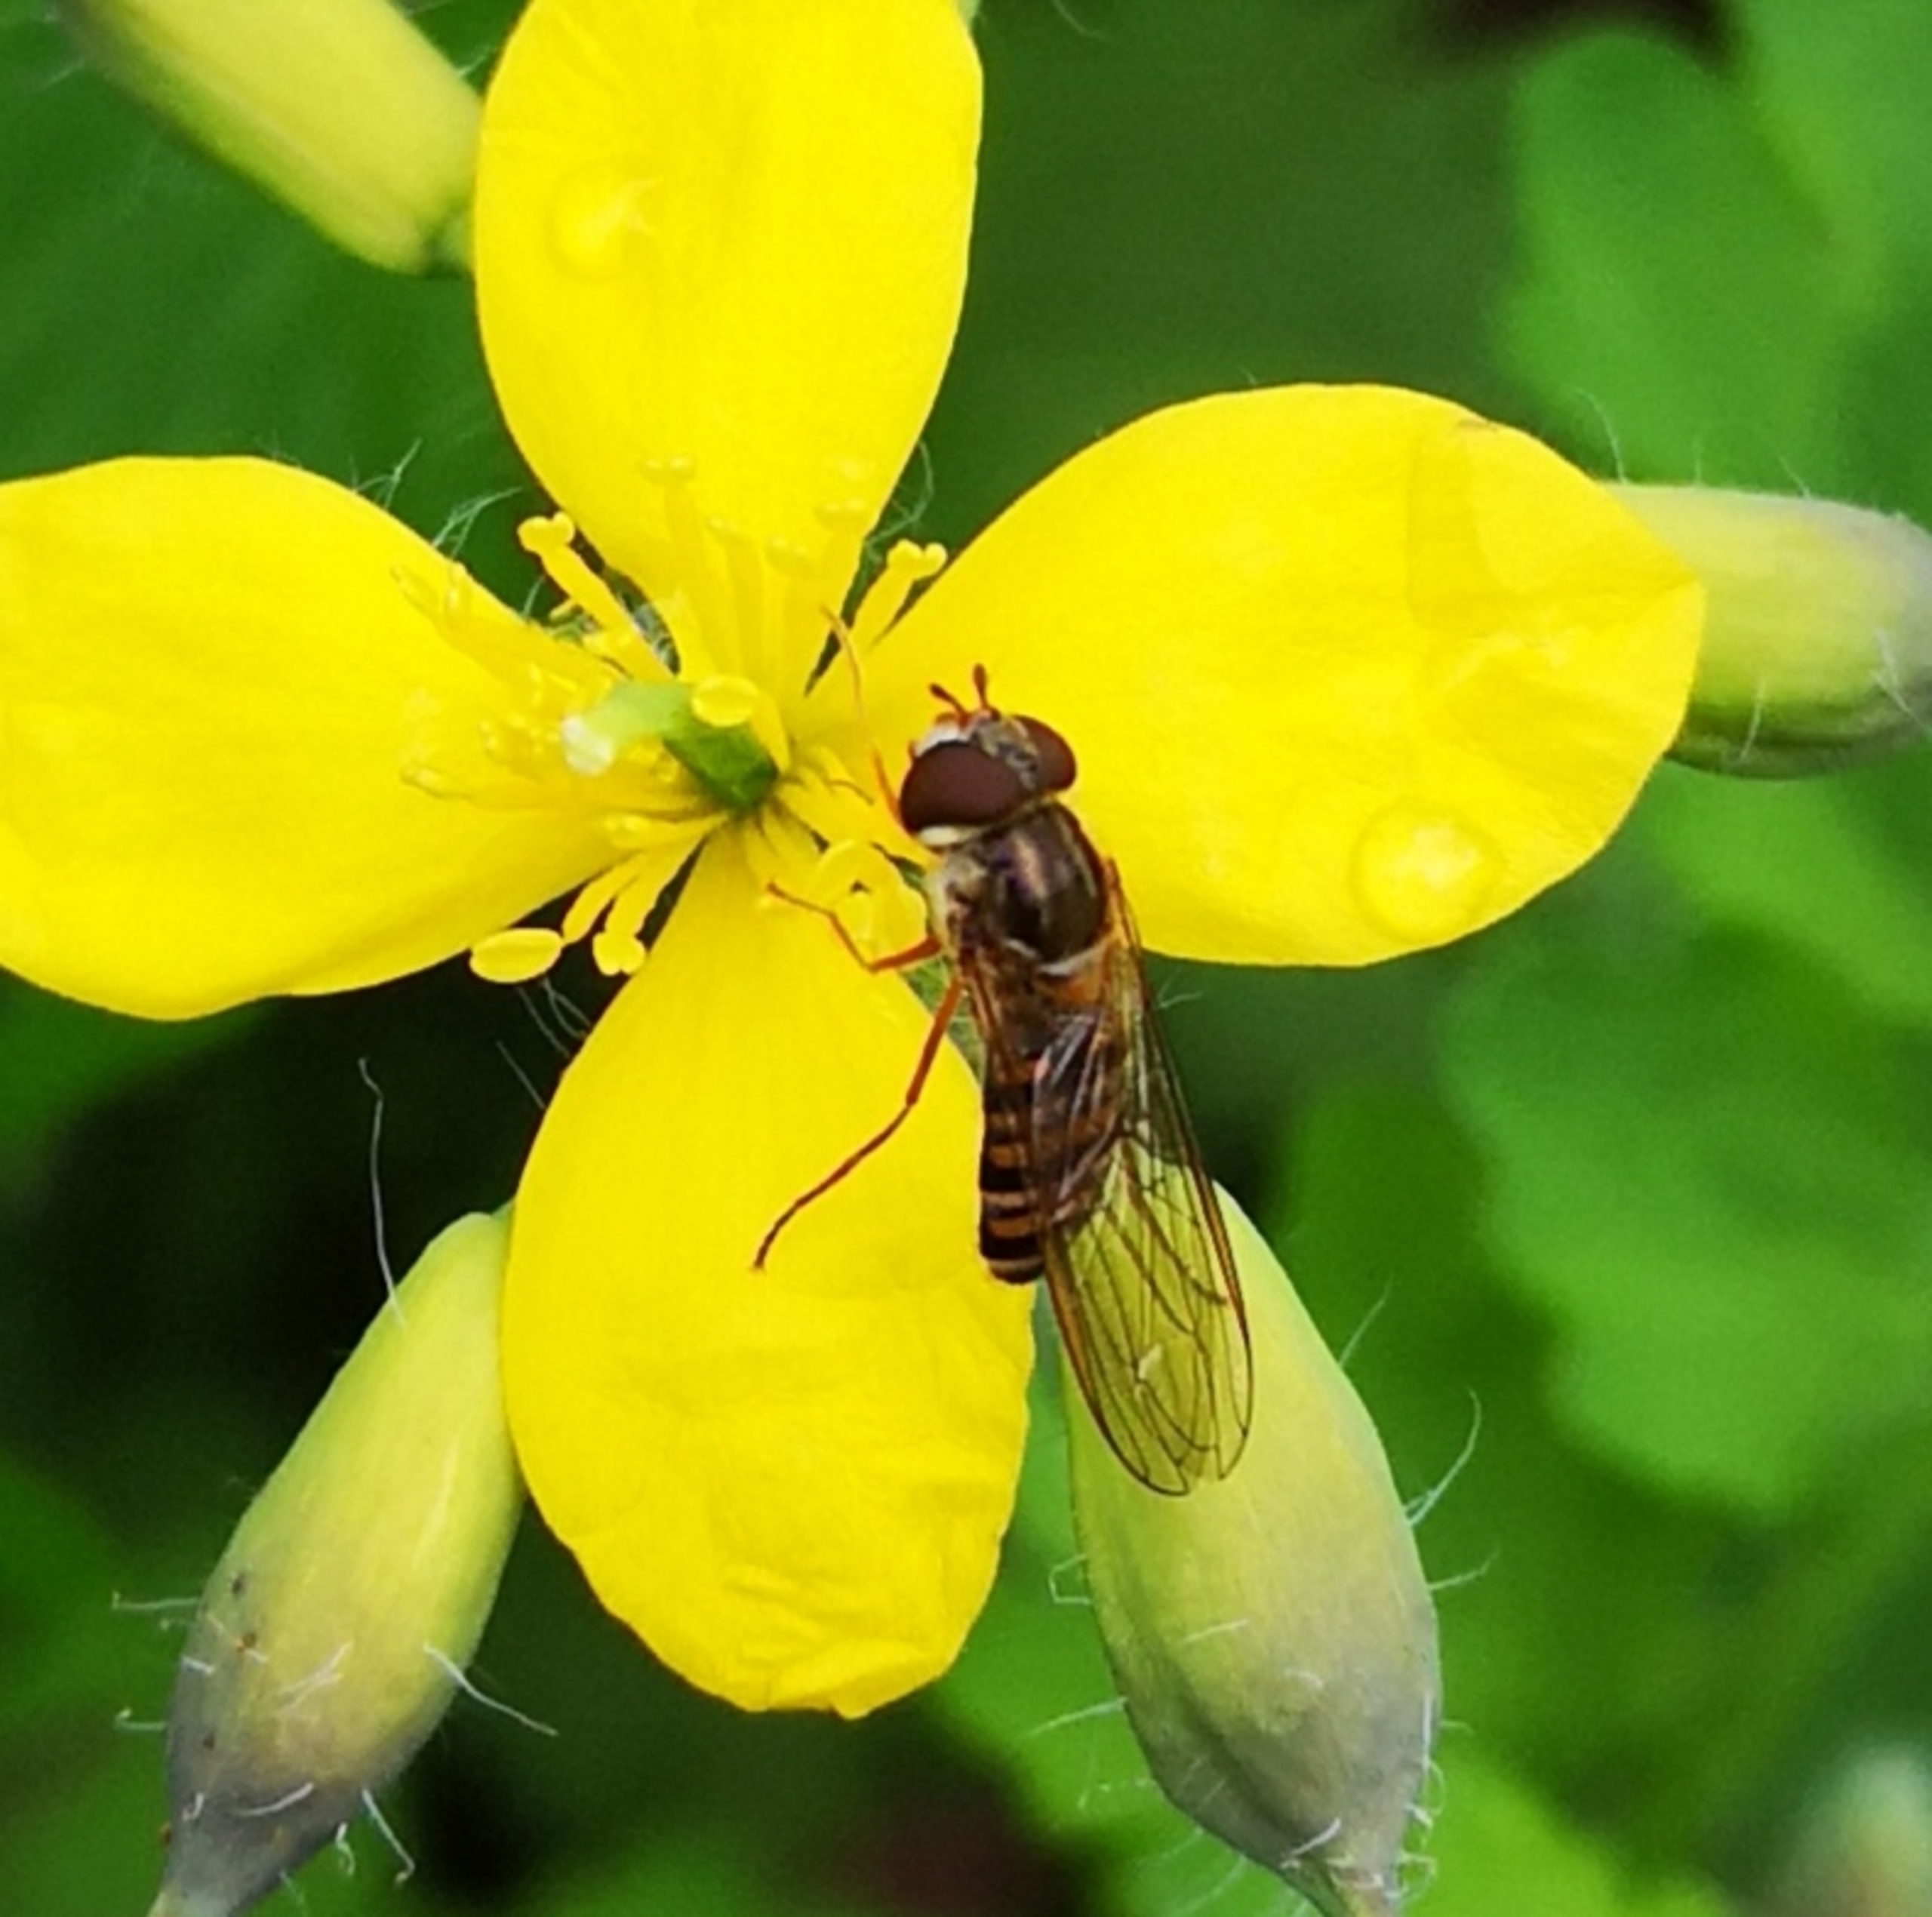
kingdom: Animalia
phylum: Arthropoda
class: Insecta
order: Diptera
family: Syrphidae
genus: Episyrphus
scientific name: Episyrphus balteatus
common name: Dobbeltbåndet svirreflue
